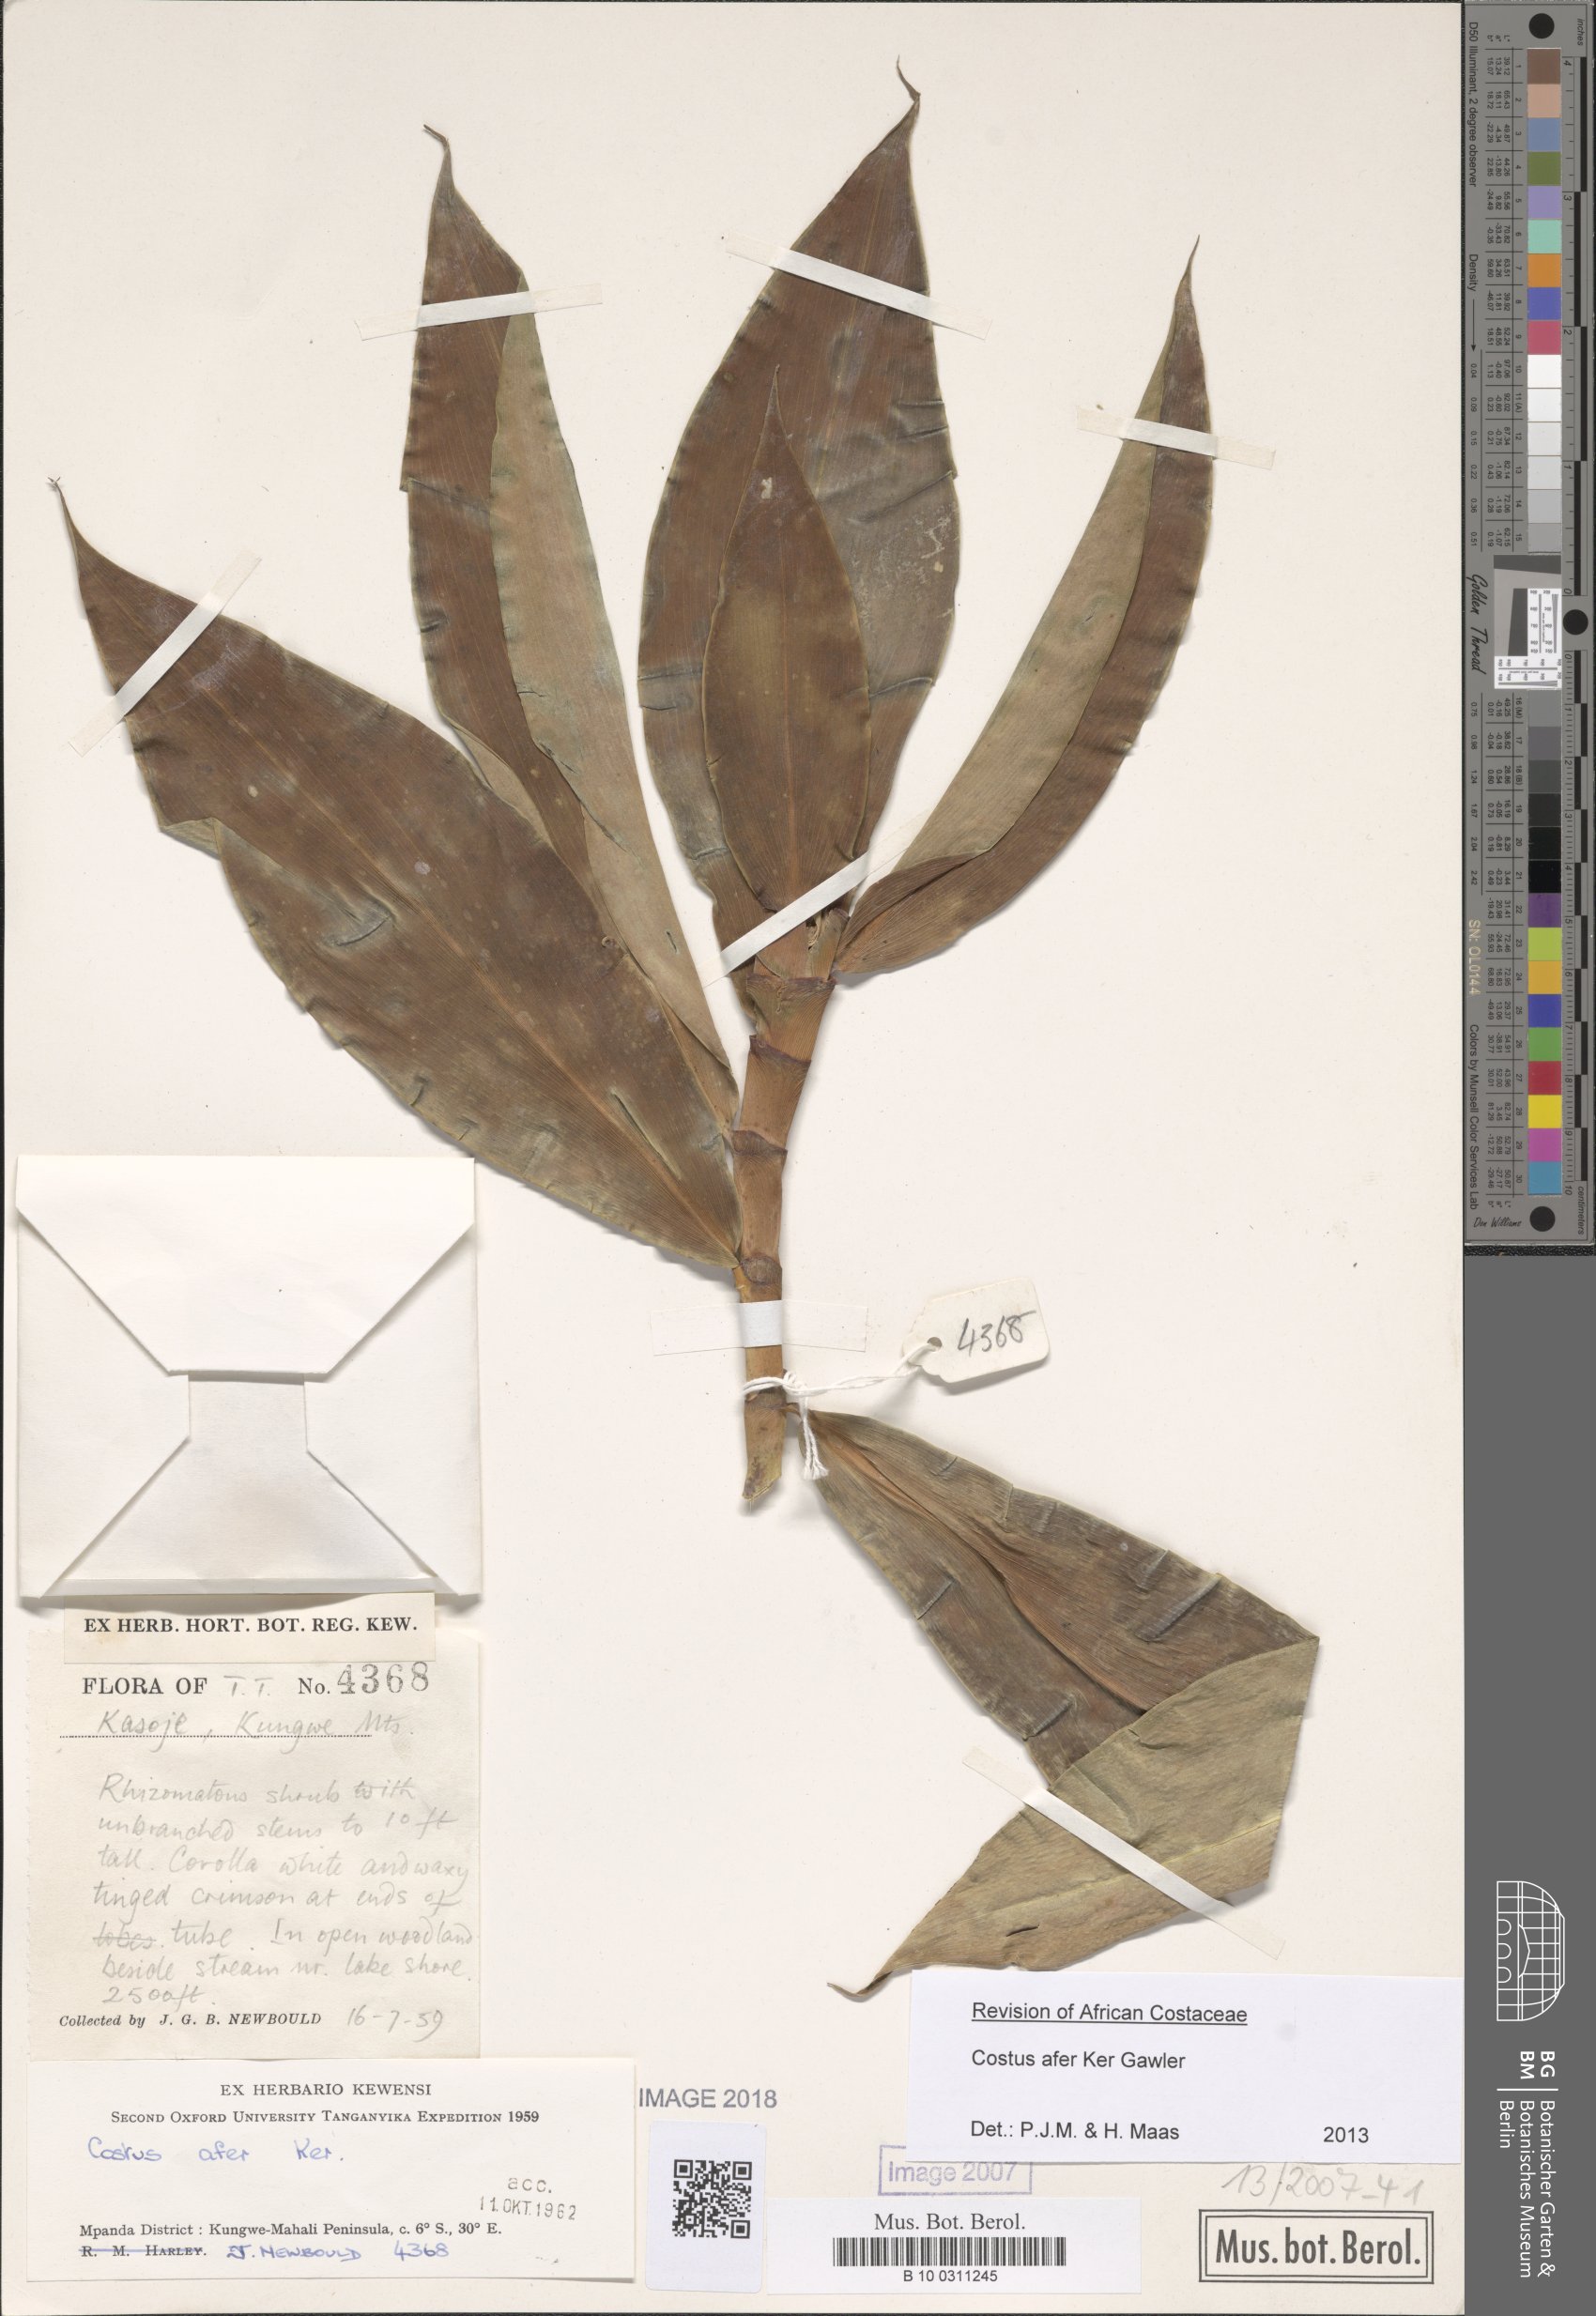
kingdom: Plantae
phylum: Tracheophyta
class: Liliopsida
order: Zingiberales
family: Costaceae
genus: Costus
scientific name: Costus afer
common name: Spiral-ginger
